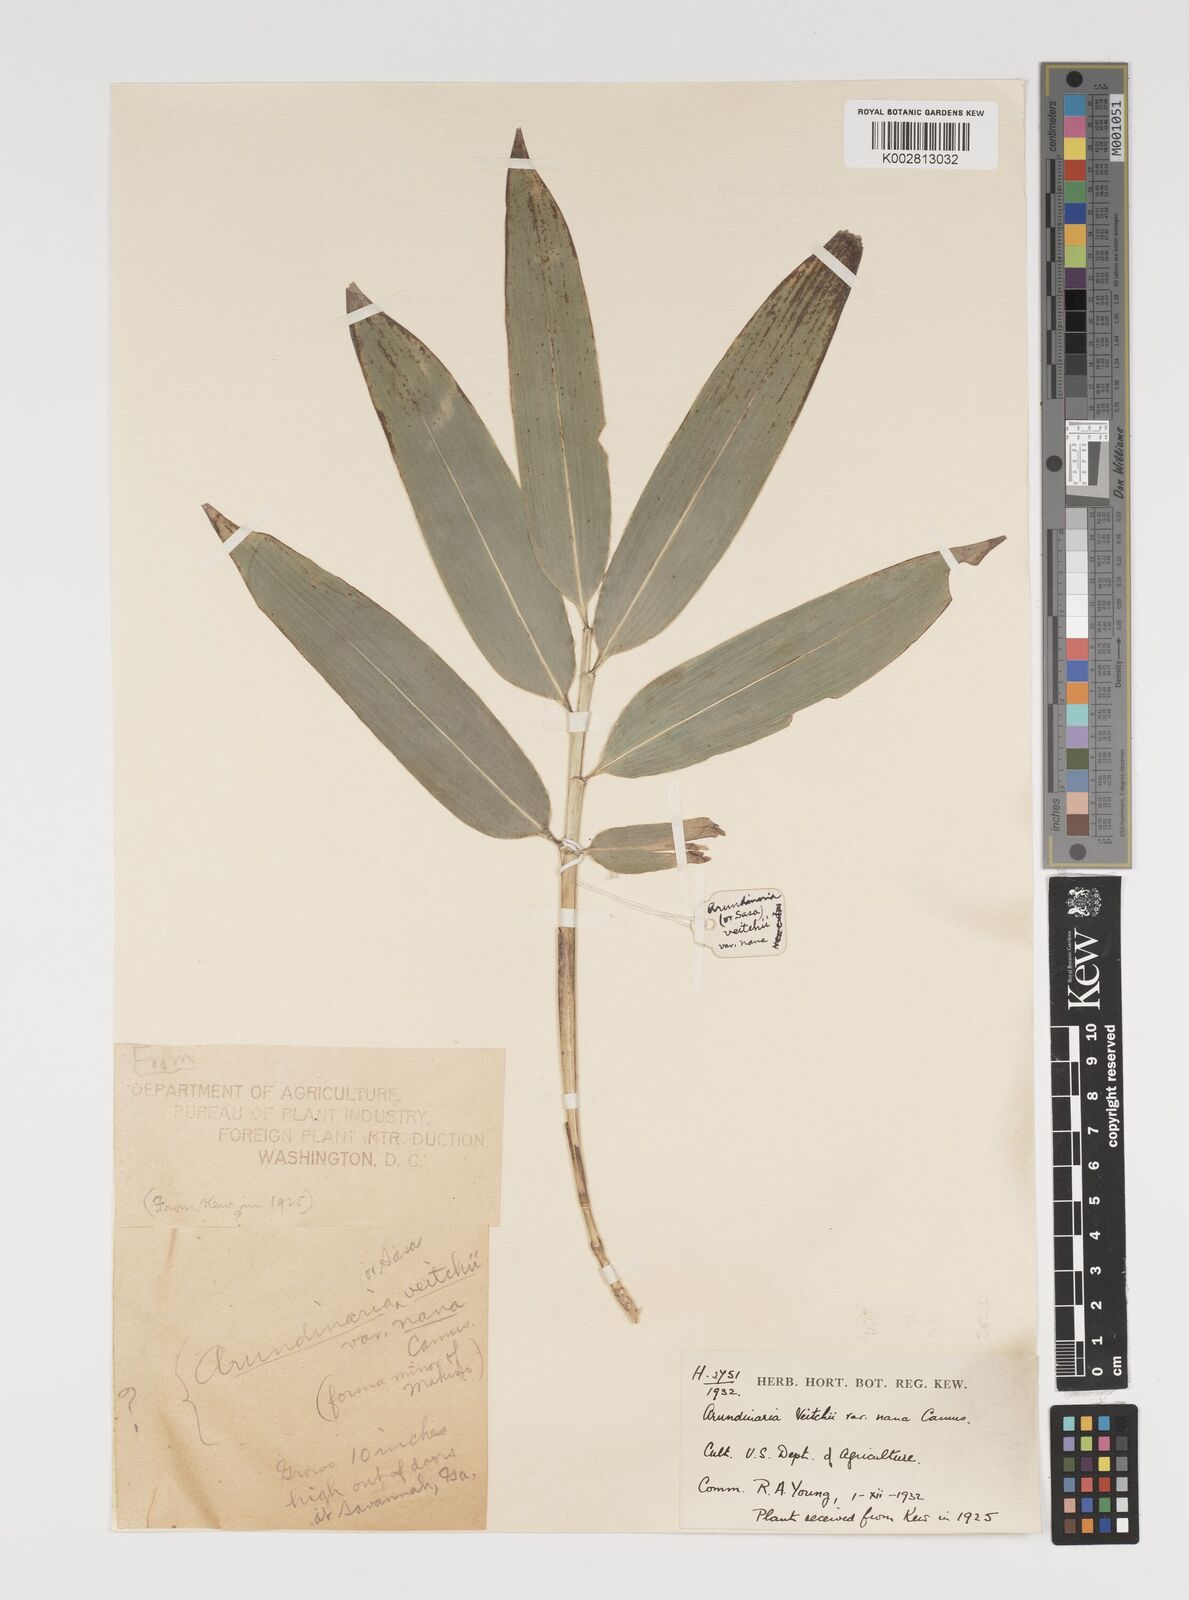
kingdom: Plantae
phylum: Tracheophyta
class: Liliopsida
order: Poales
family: Poaceae
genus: Sasa
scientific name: Sasa chartacea
